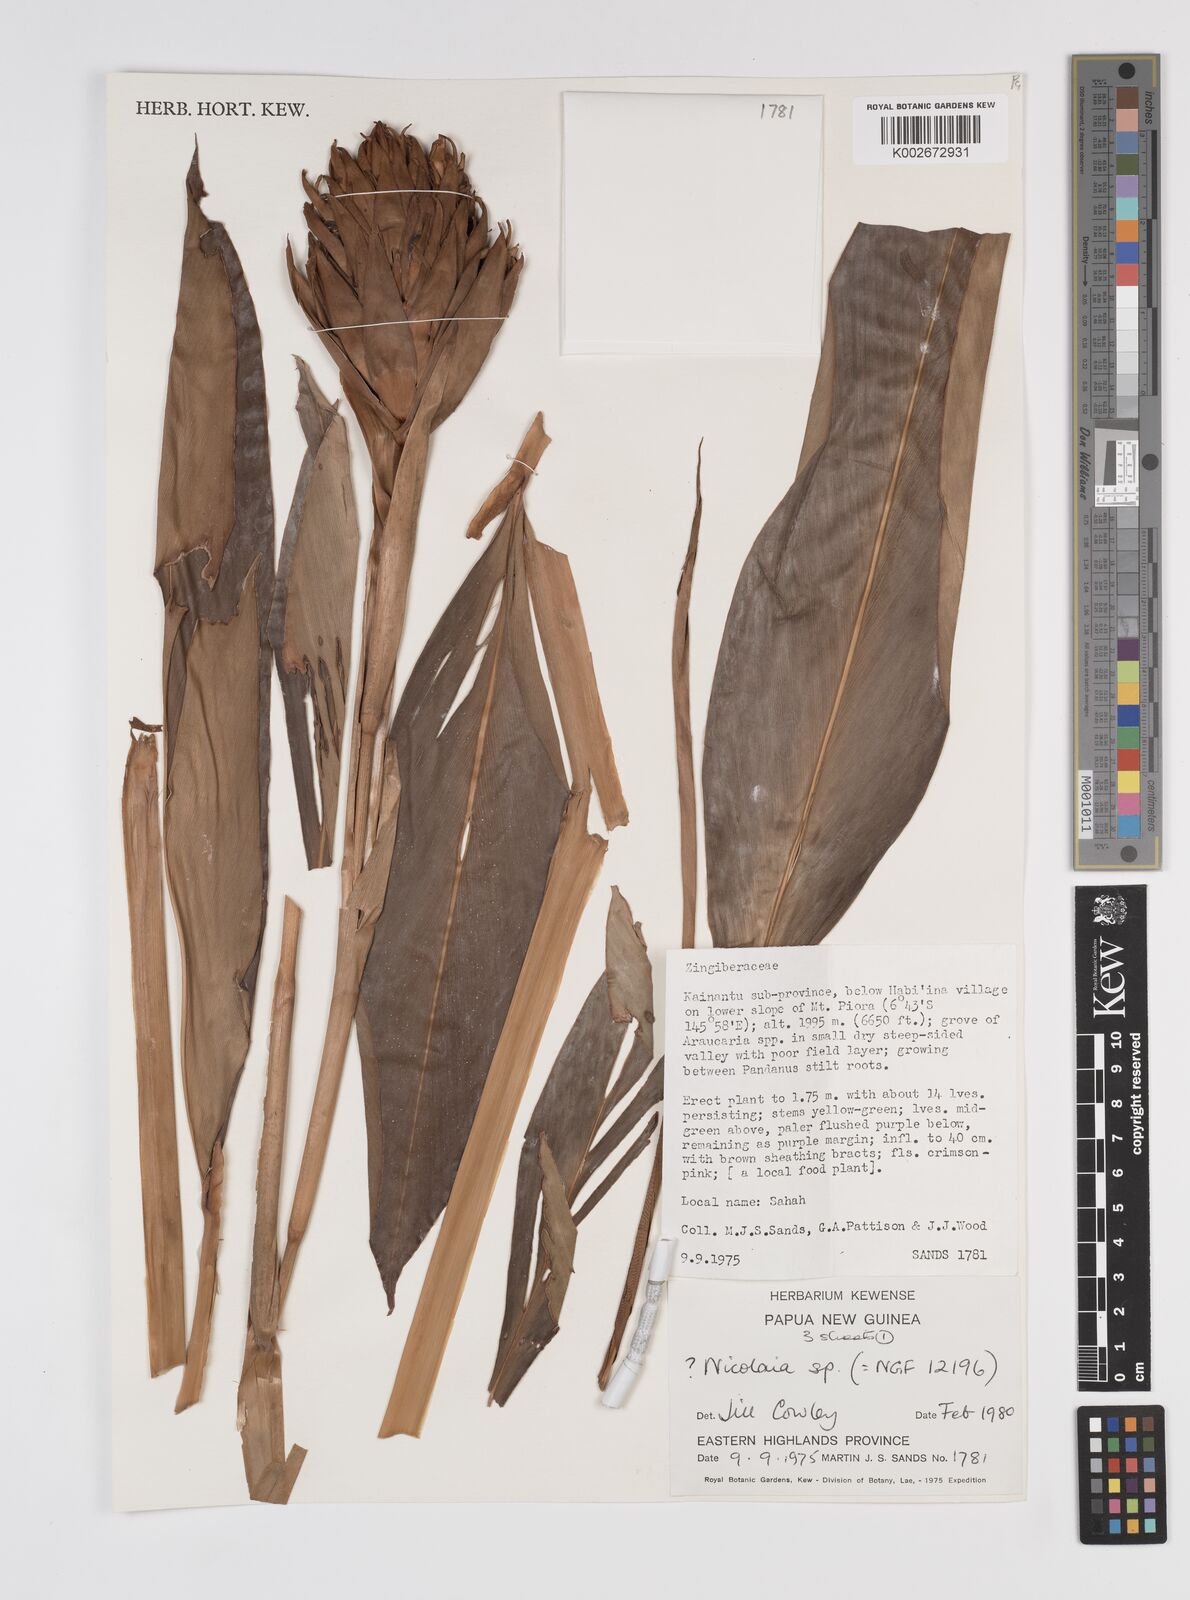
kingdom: Plantae
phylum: Tracheophyta
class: Liliopsida
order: Zingiberales
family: Zingiberaceae
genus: Etlingera
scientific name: Etlingera
